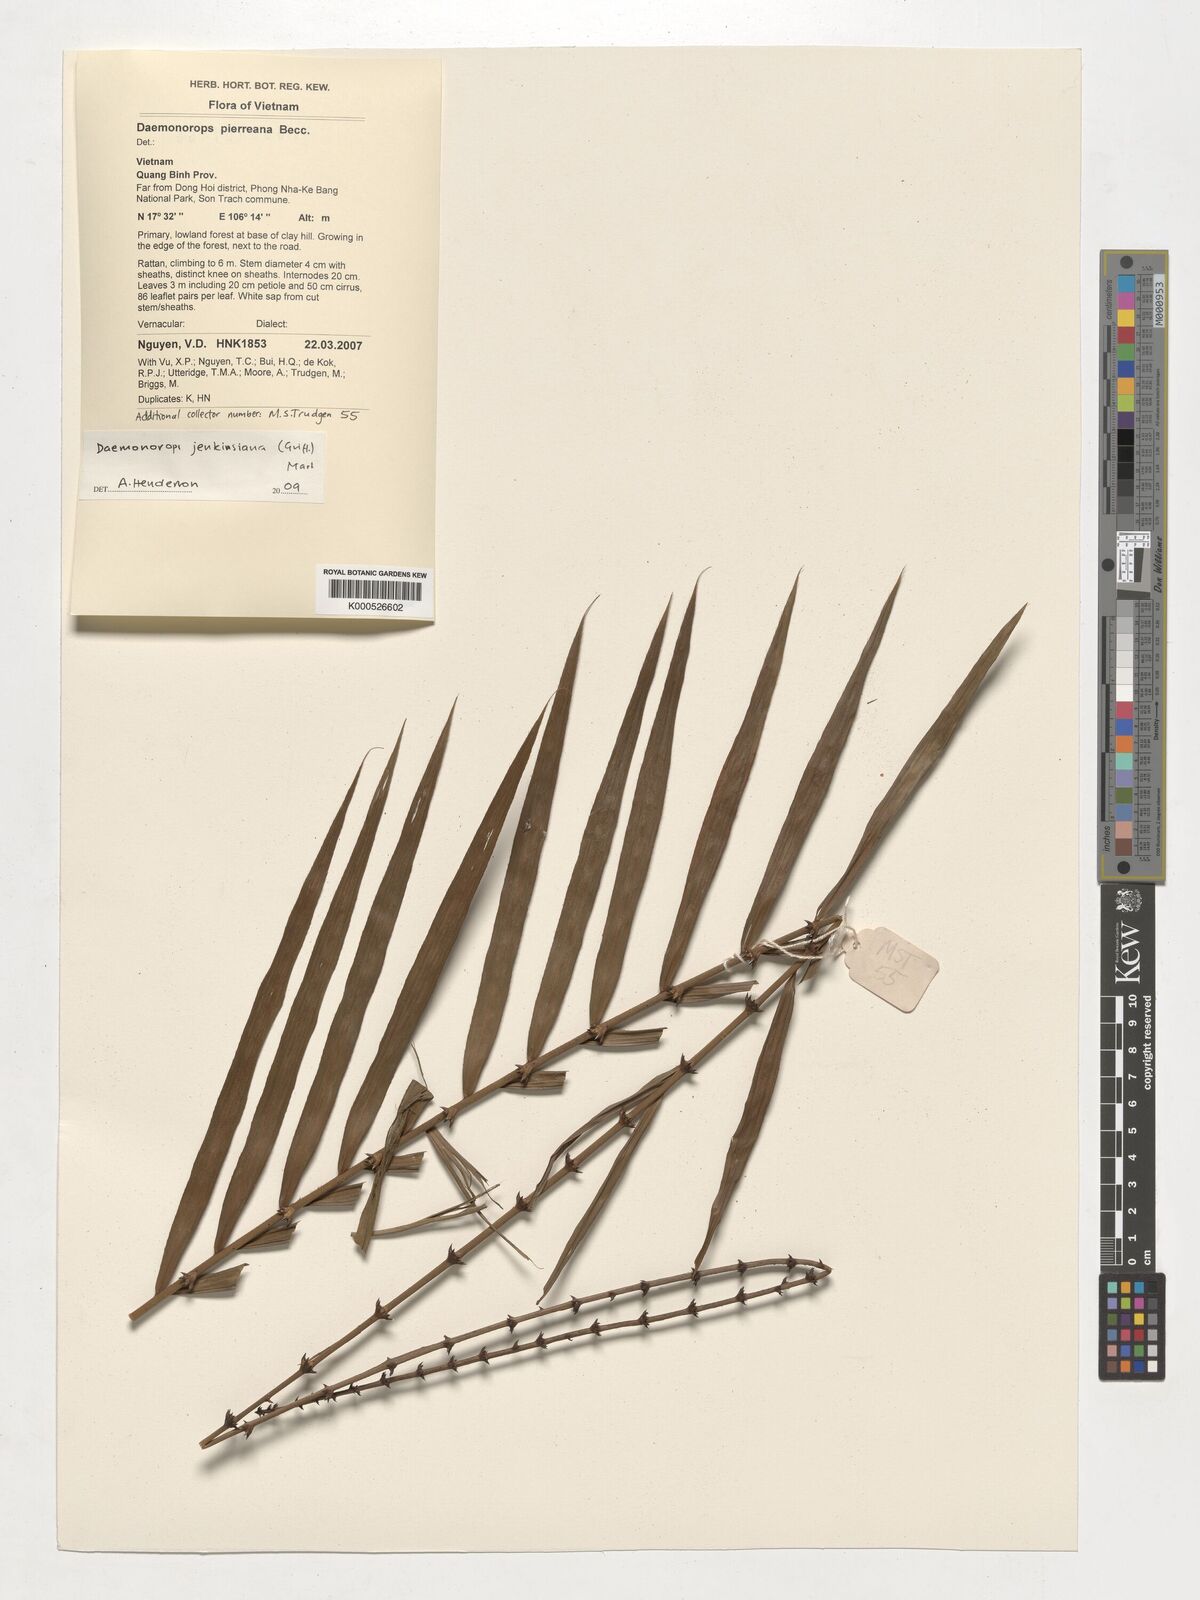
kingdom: Plantae
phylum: Tracheophyta
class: Liliopsida
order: Arecales
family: Arecaceae
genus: Calamus
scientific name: Calamus melanochaetes
